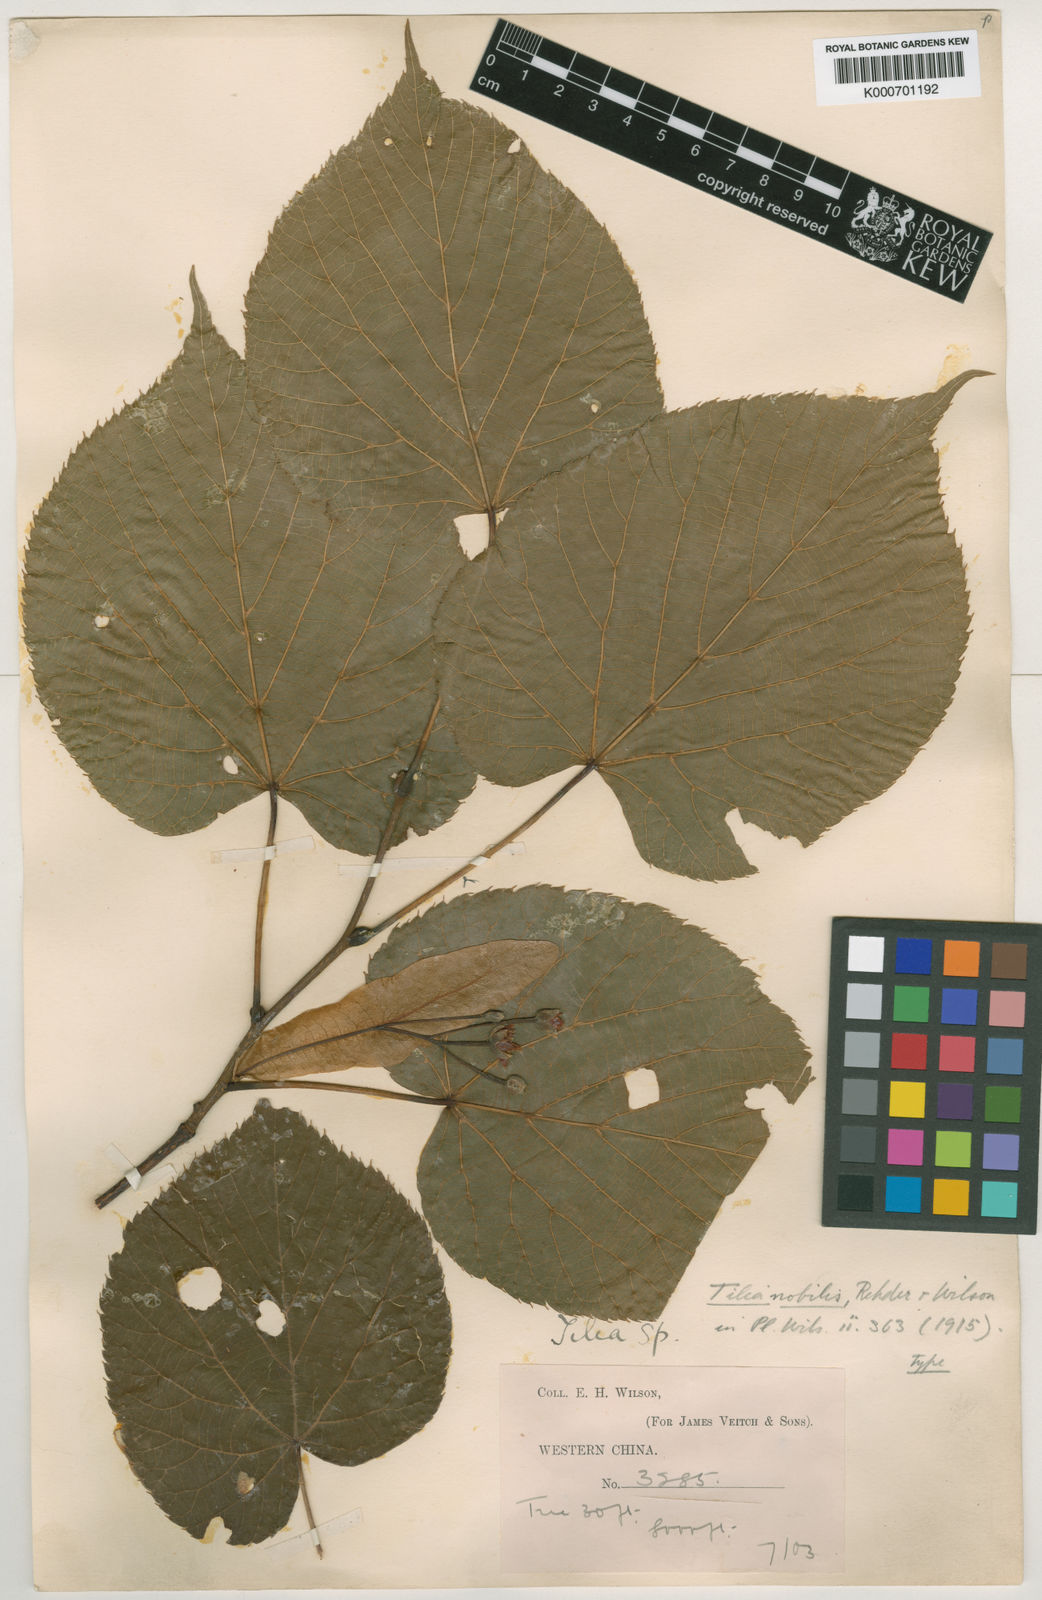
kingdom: Plantae
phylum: Tracheophyta
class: Magnoliopsida
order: Malvales
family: Malvaceae
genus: Tilia
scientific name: Tilia nobilis
